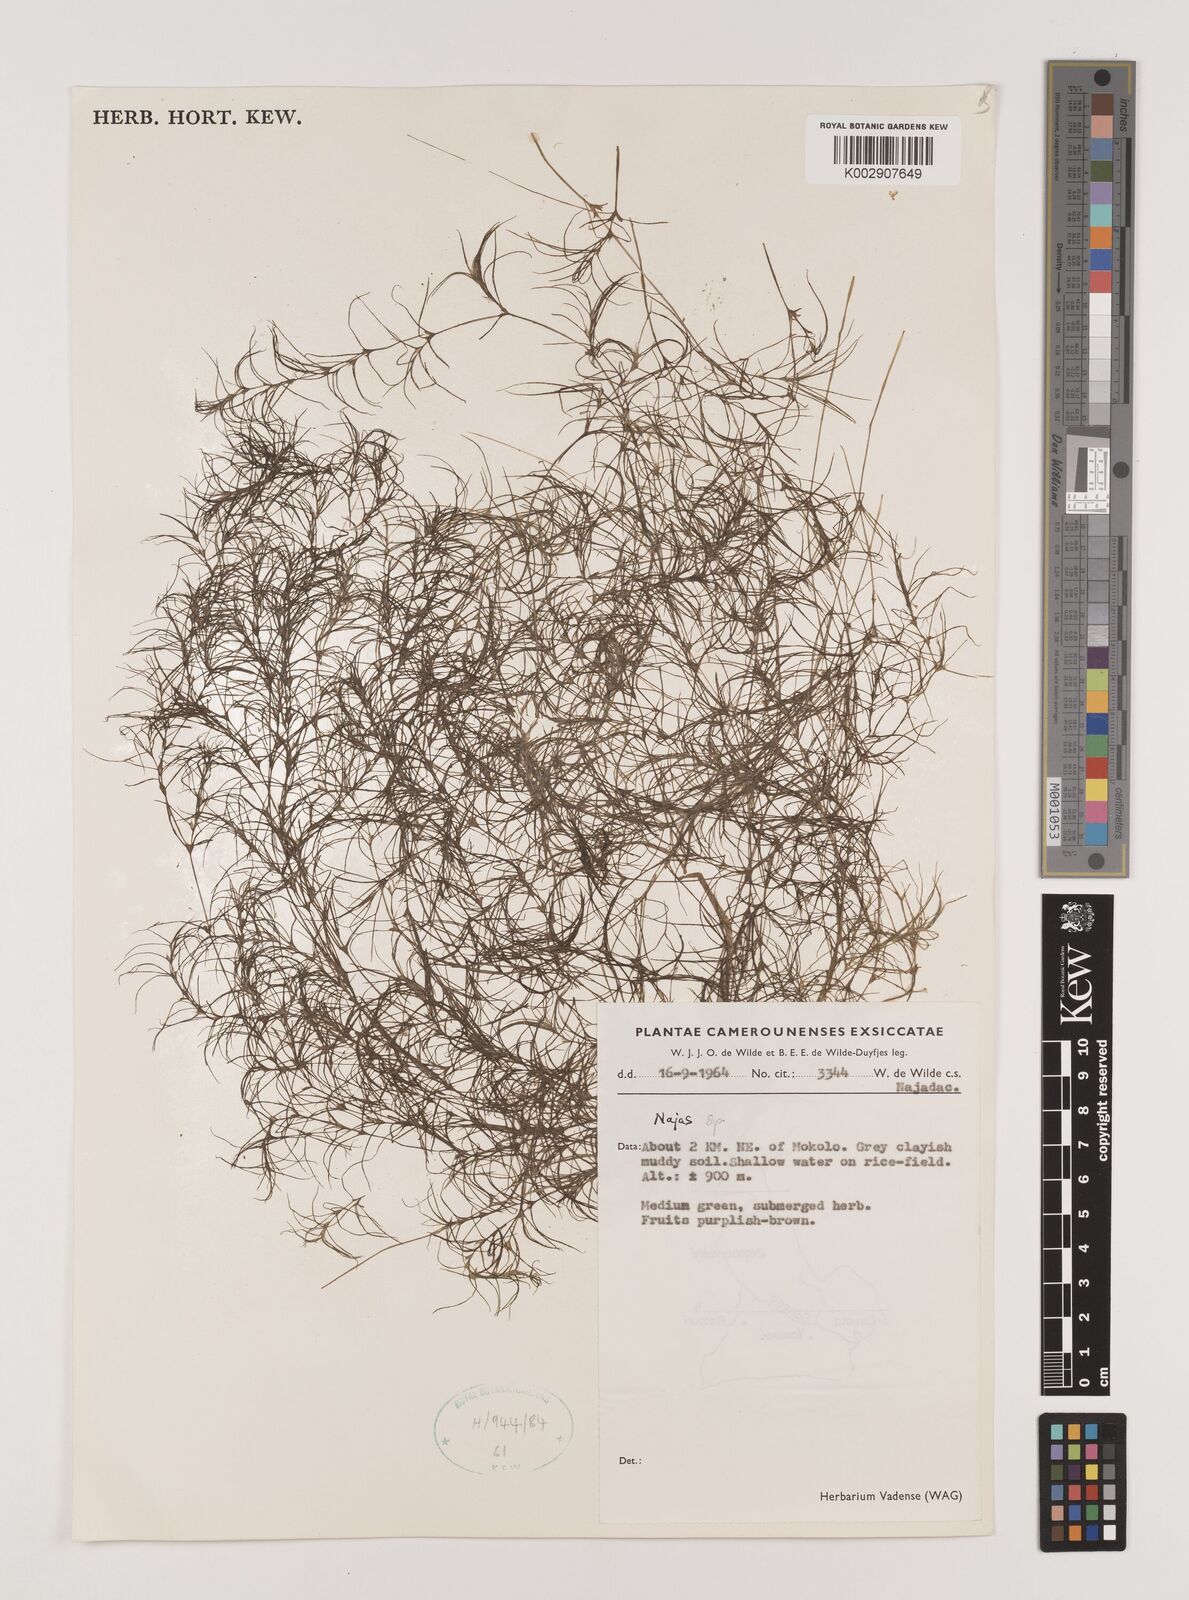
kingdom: Plantae
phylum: Tracheophyta
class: Liliopsida
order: Alismatales
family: Hydrocharitaceae
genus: Najas
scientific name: Najas
